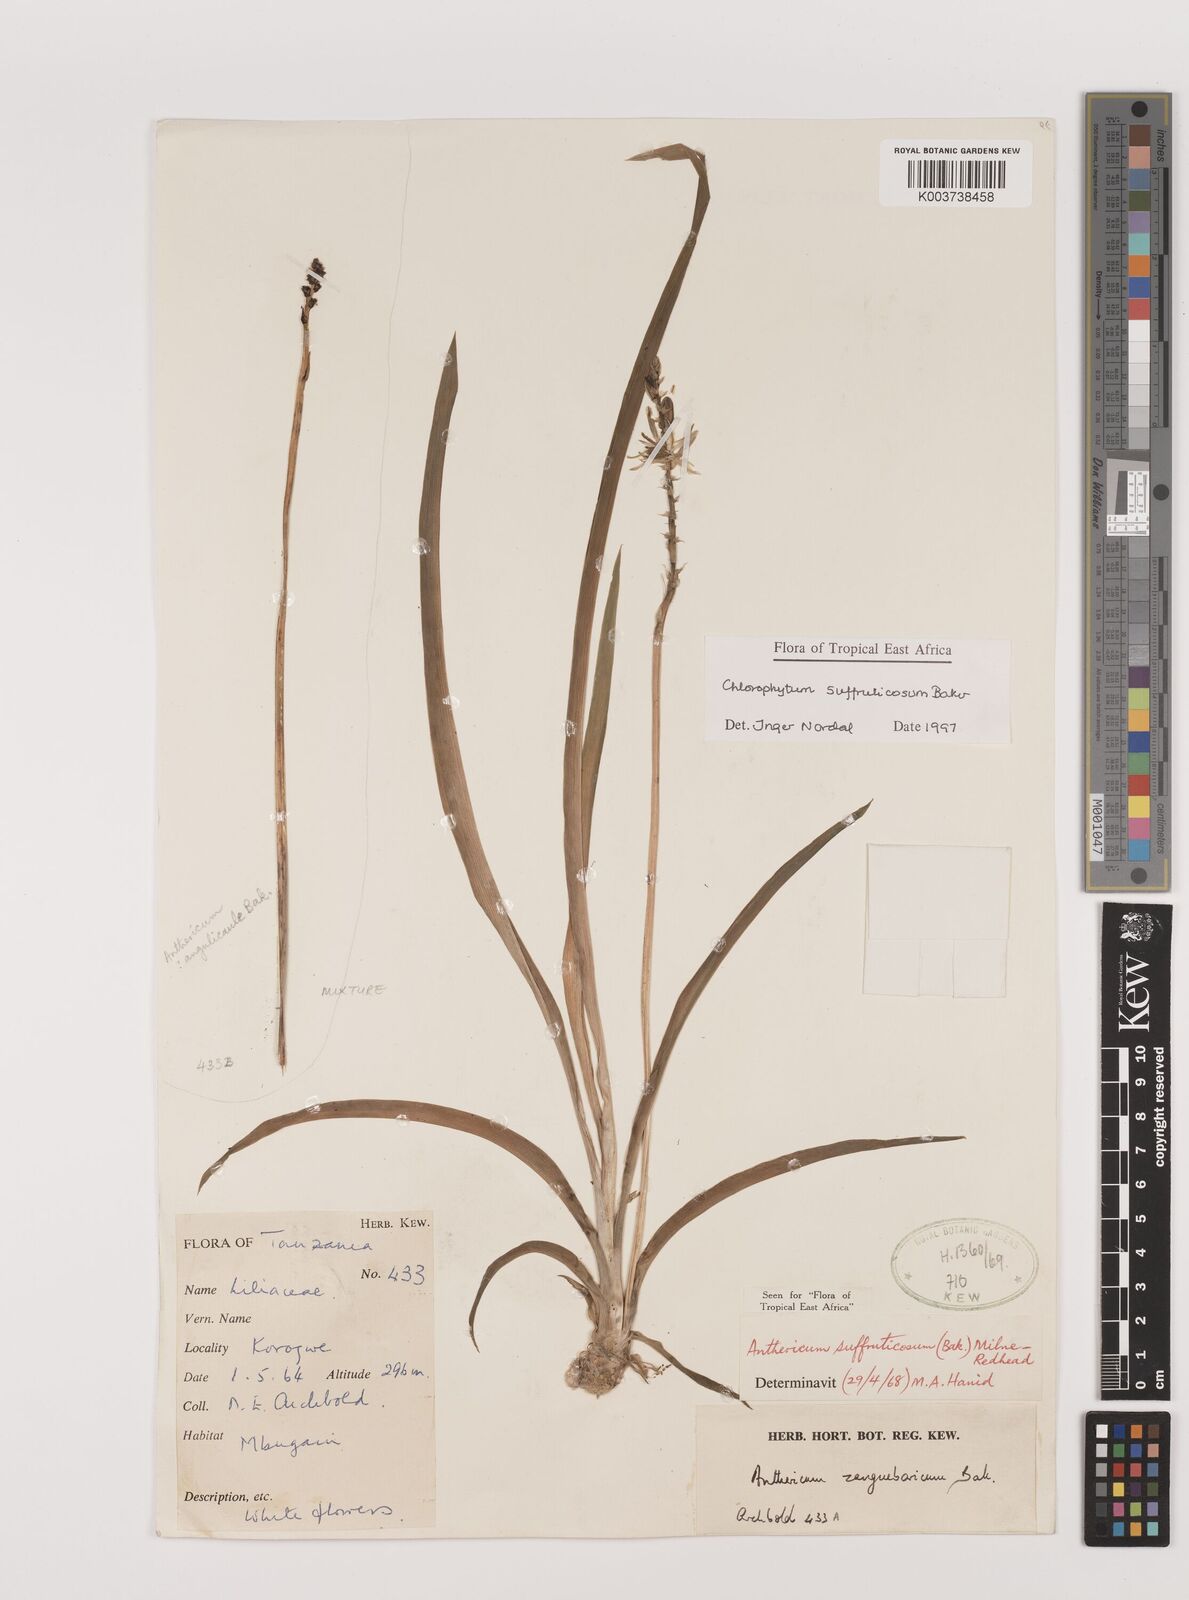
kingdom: Plantae
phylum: Tracheophyta
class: Liliopsida
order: Asparagales
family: Asparagaceae
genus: Chlorophytum
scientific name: Chlorophytum suffruticosum
